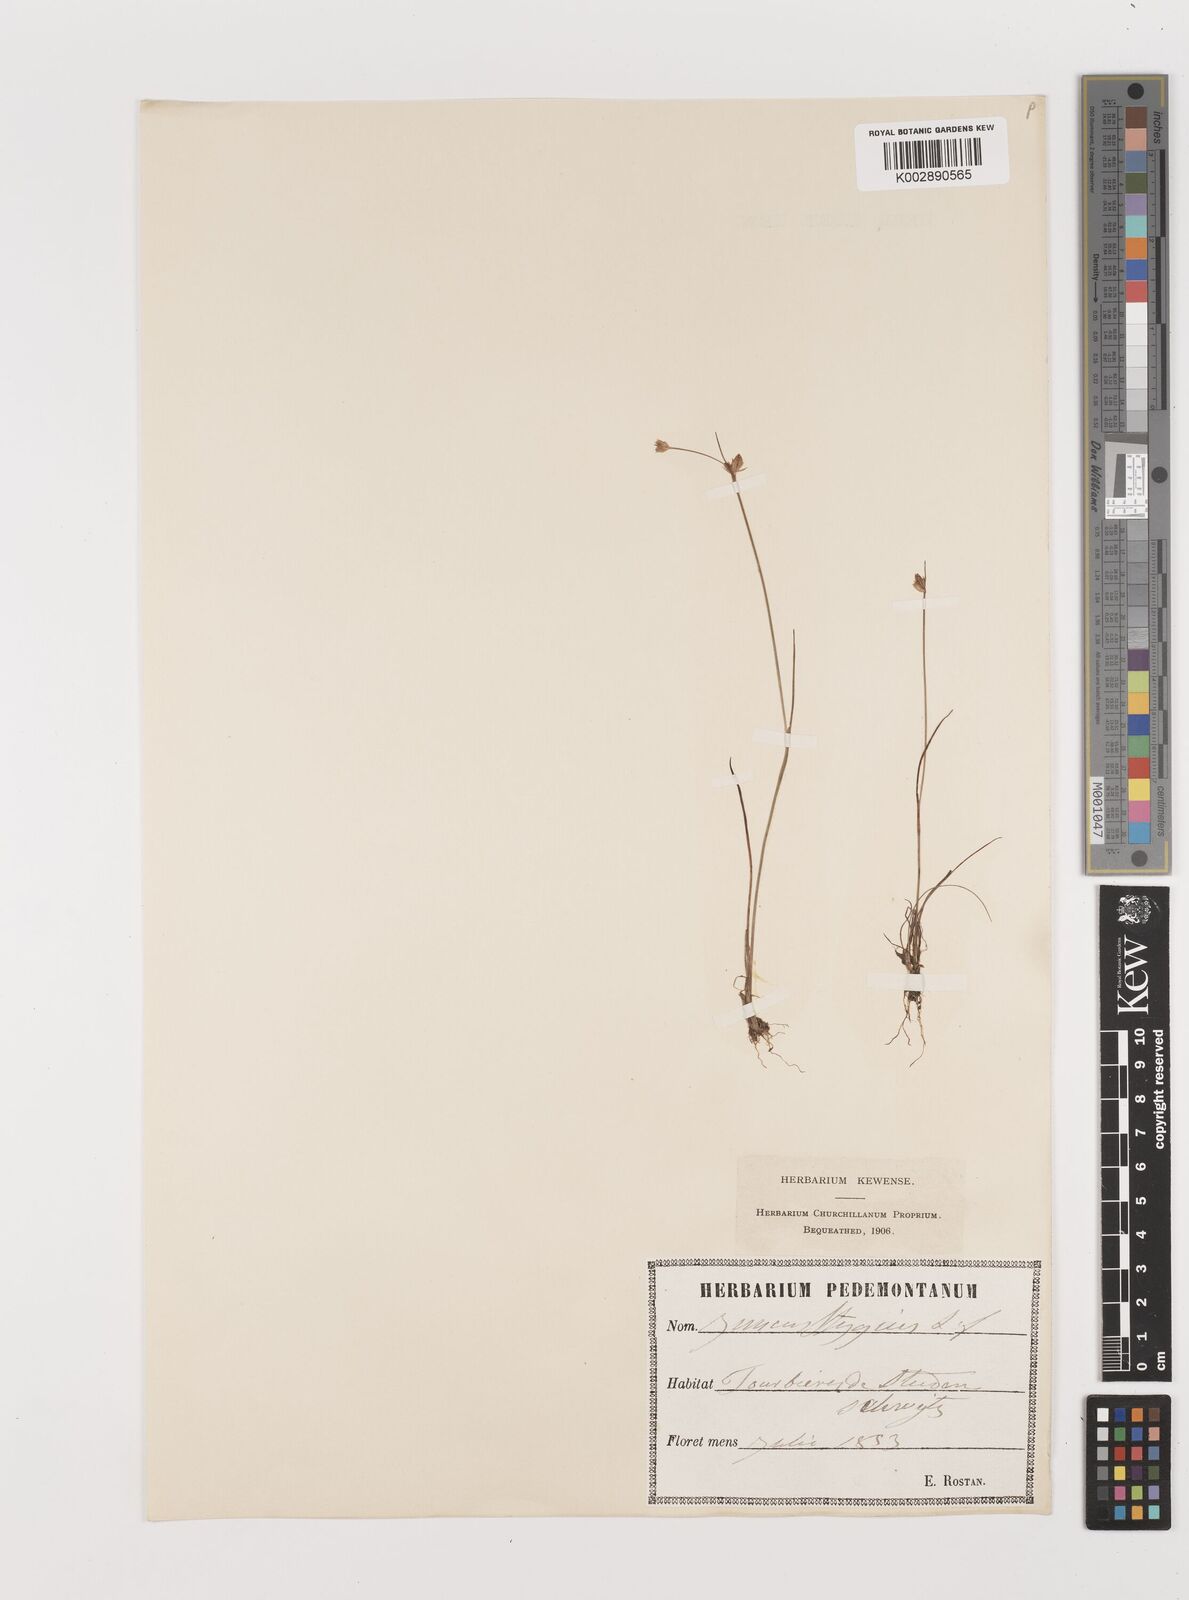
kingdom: Plantae
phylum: Tracheophyta
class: Liliopsida
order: Poales
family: Juncaceae
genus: Juncus
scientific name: Juncus stygius
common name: Bog rush
